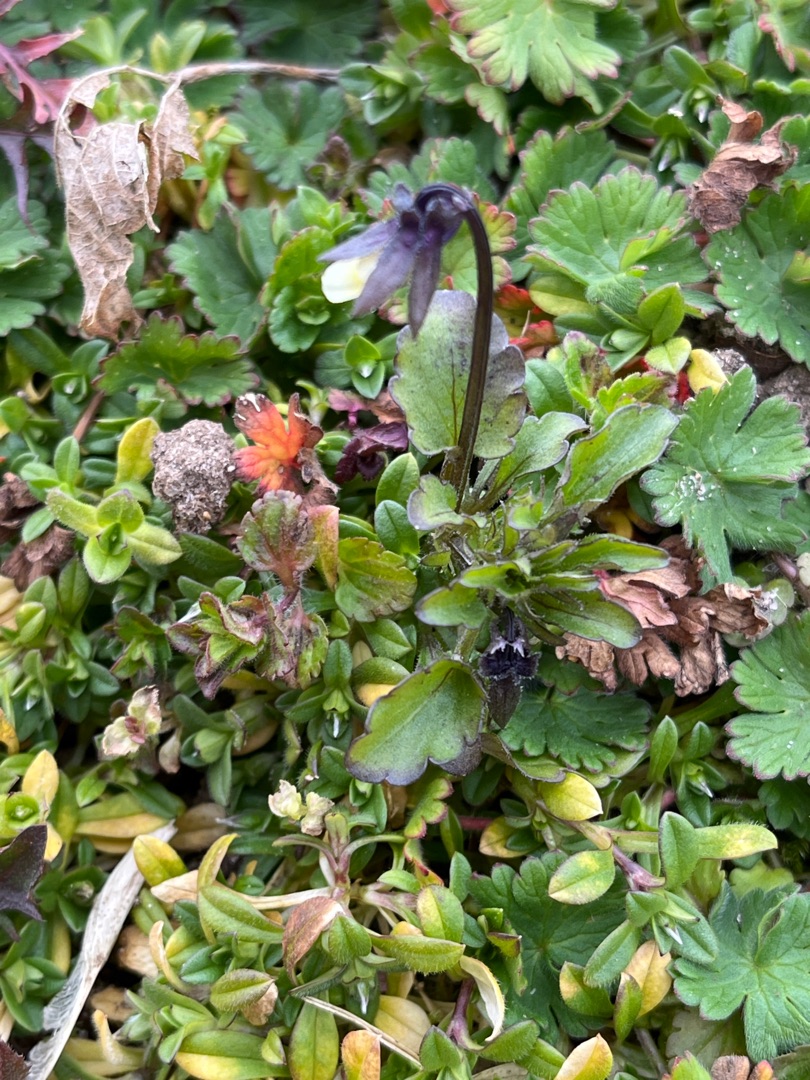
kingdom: Plantae
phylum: Tracheophyta
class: Magnoliopsida
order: Malpighiales
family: Violaceae
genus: Viola
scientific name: Viola arvensis
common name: Ager-stedmoderblomst
